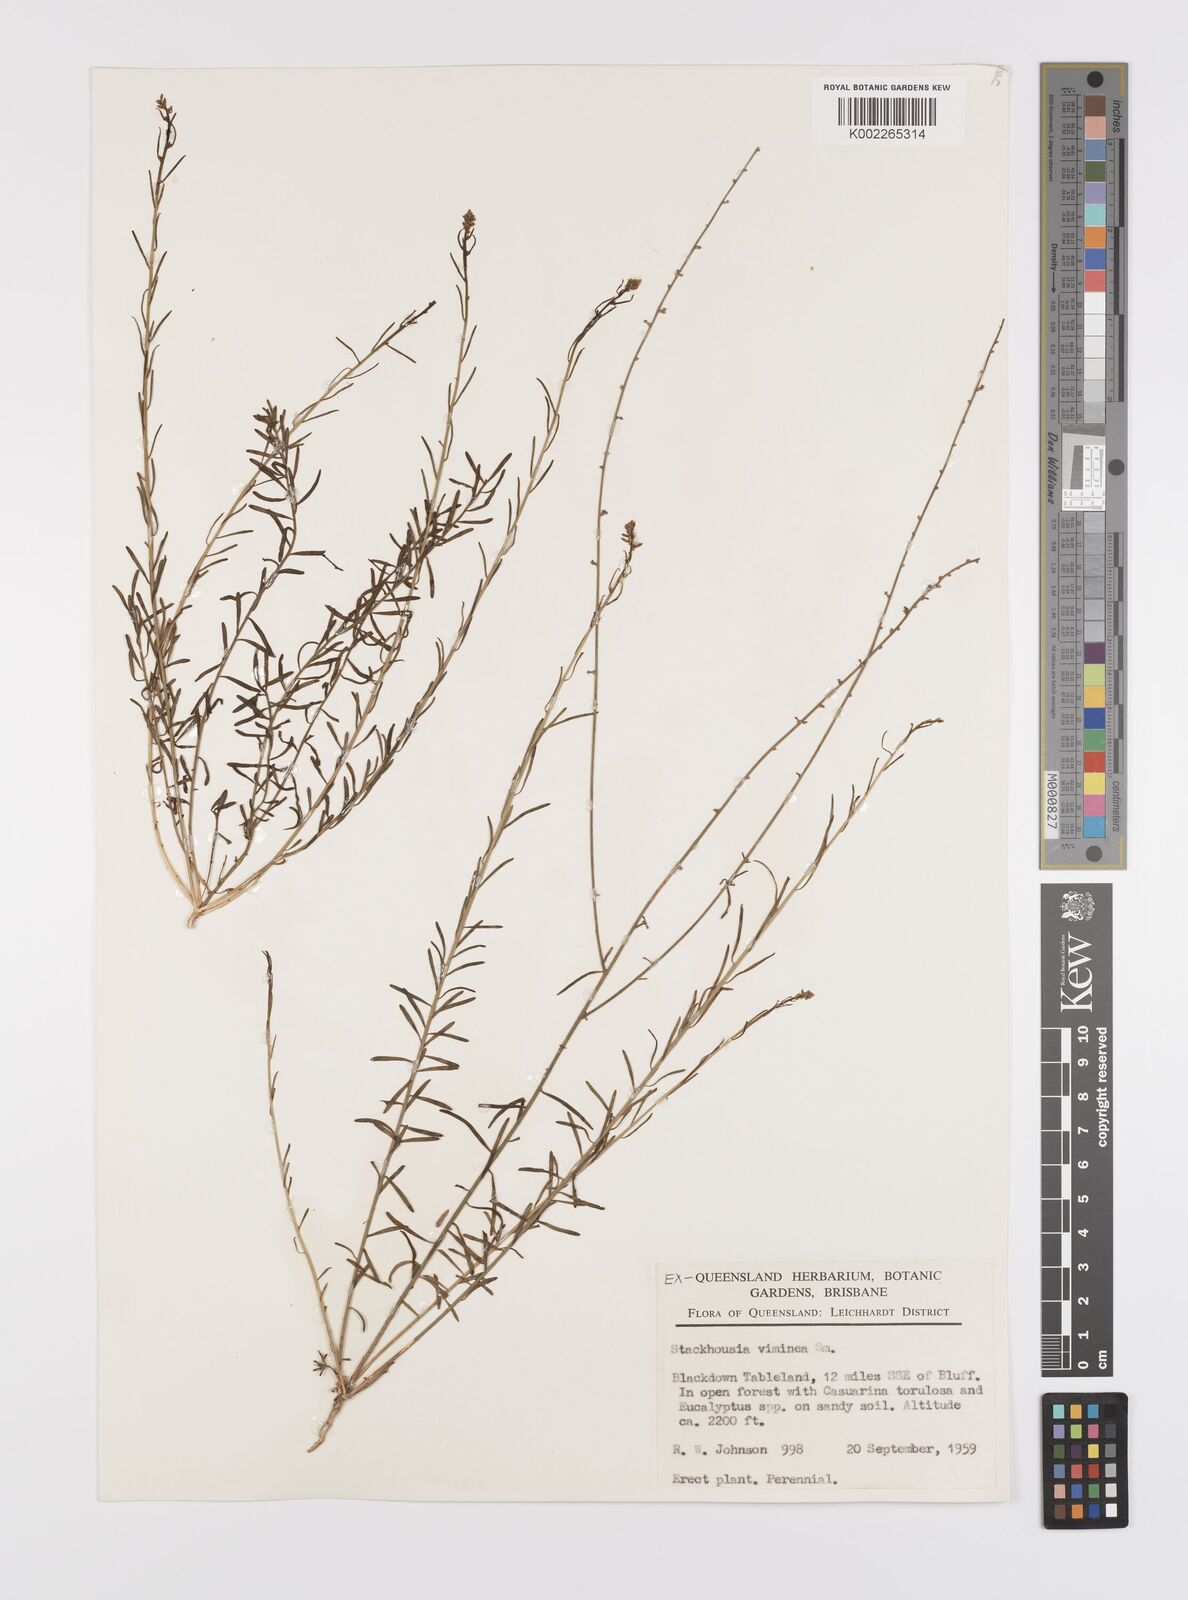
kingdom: Plantae
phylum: Tracheophyta
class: Magnoliopsida
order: Celastrales
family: Celastraceae
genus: Stackhousia
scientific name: Stackhousia viminea
